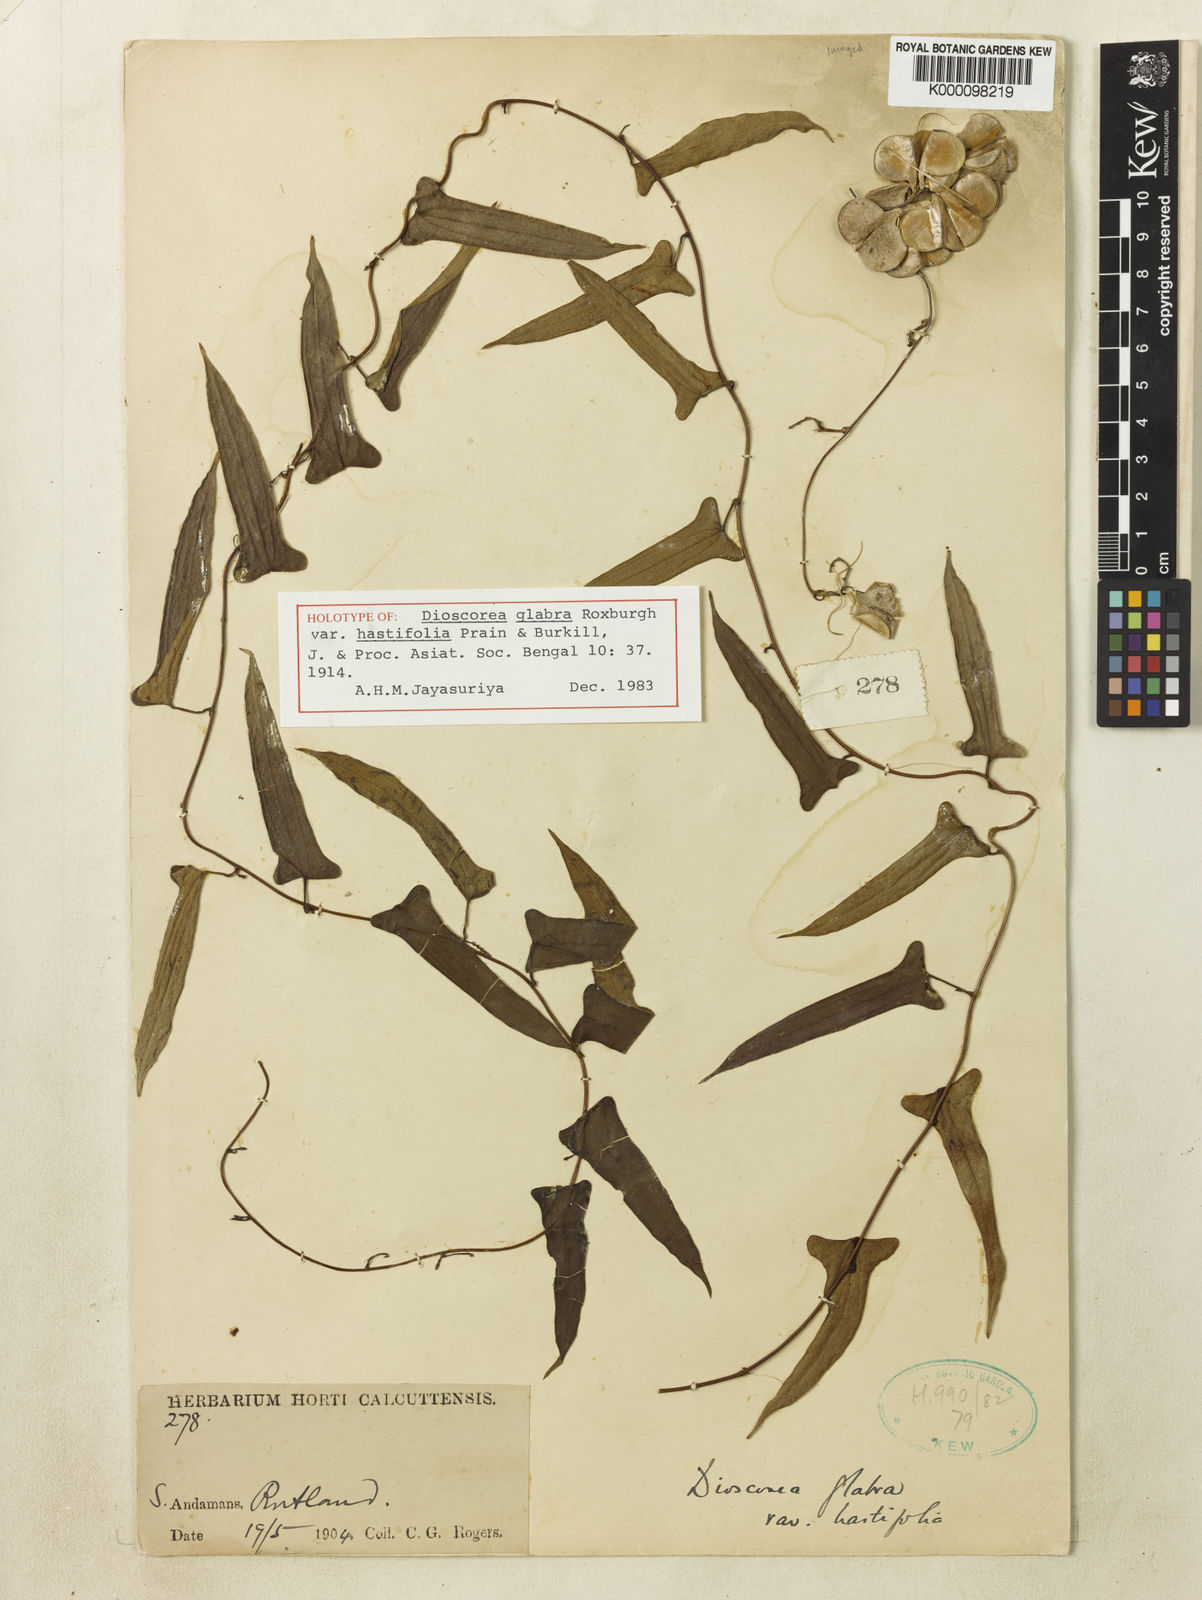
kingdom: Plantae
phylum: Tracheophyta
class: Liliopsida
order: Dioscoreales
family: Dioscoreaceae
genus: Dioscorea
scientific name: Dioscorea glabra
